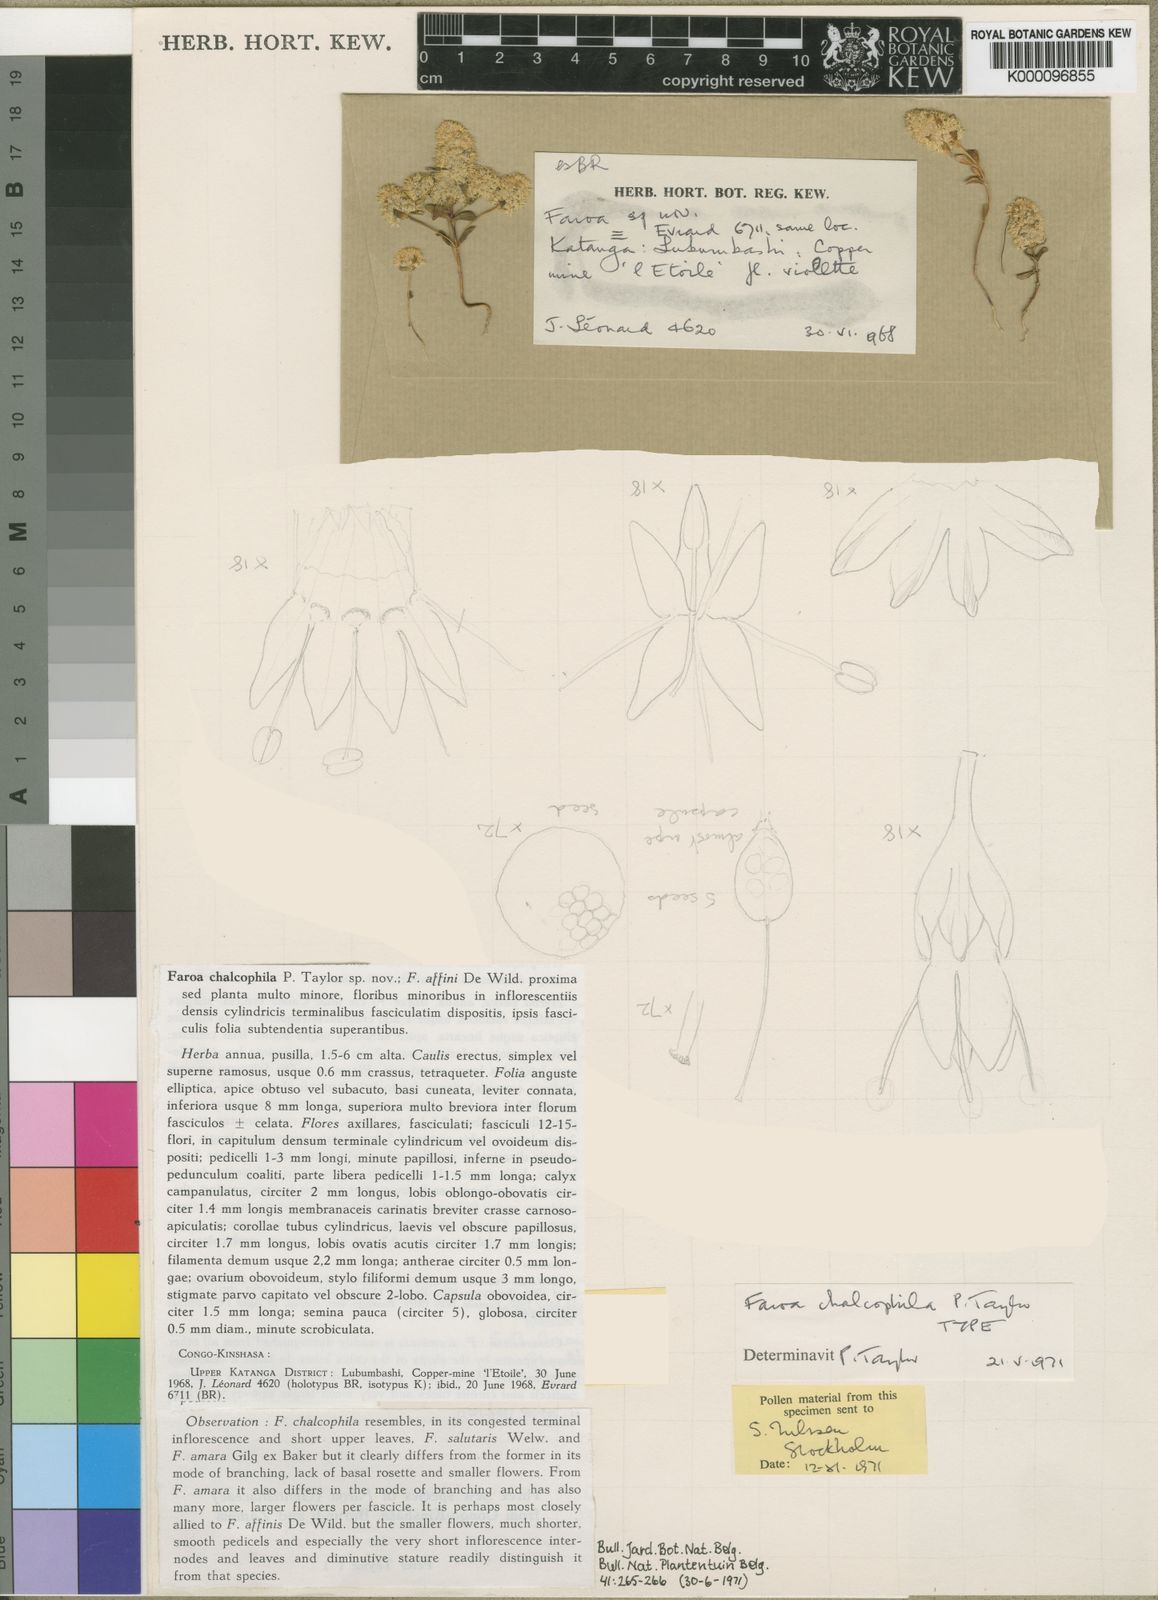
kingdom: Plantae
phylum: Tracheophyta
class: Magnoliopsida
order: Gentianales
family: Gentianaceae
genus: Faroa
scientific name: Faroa chalcophila
